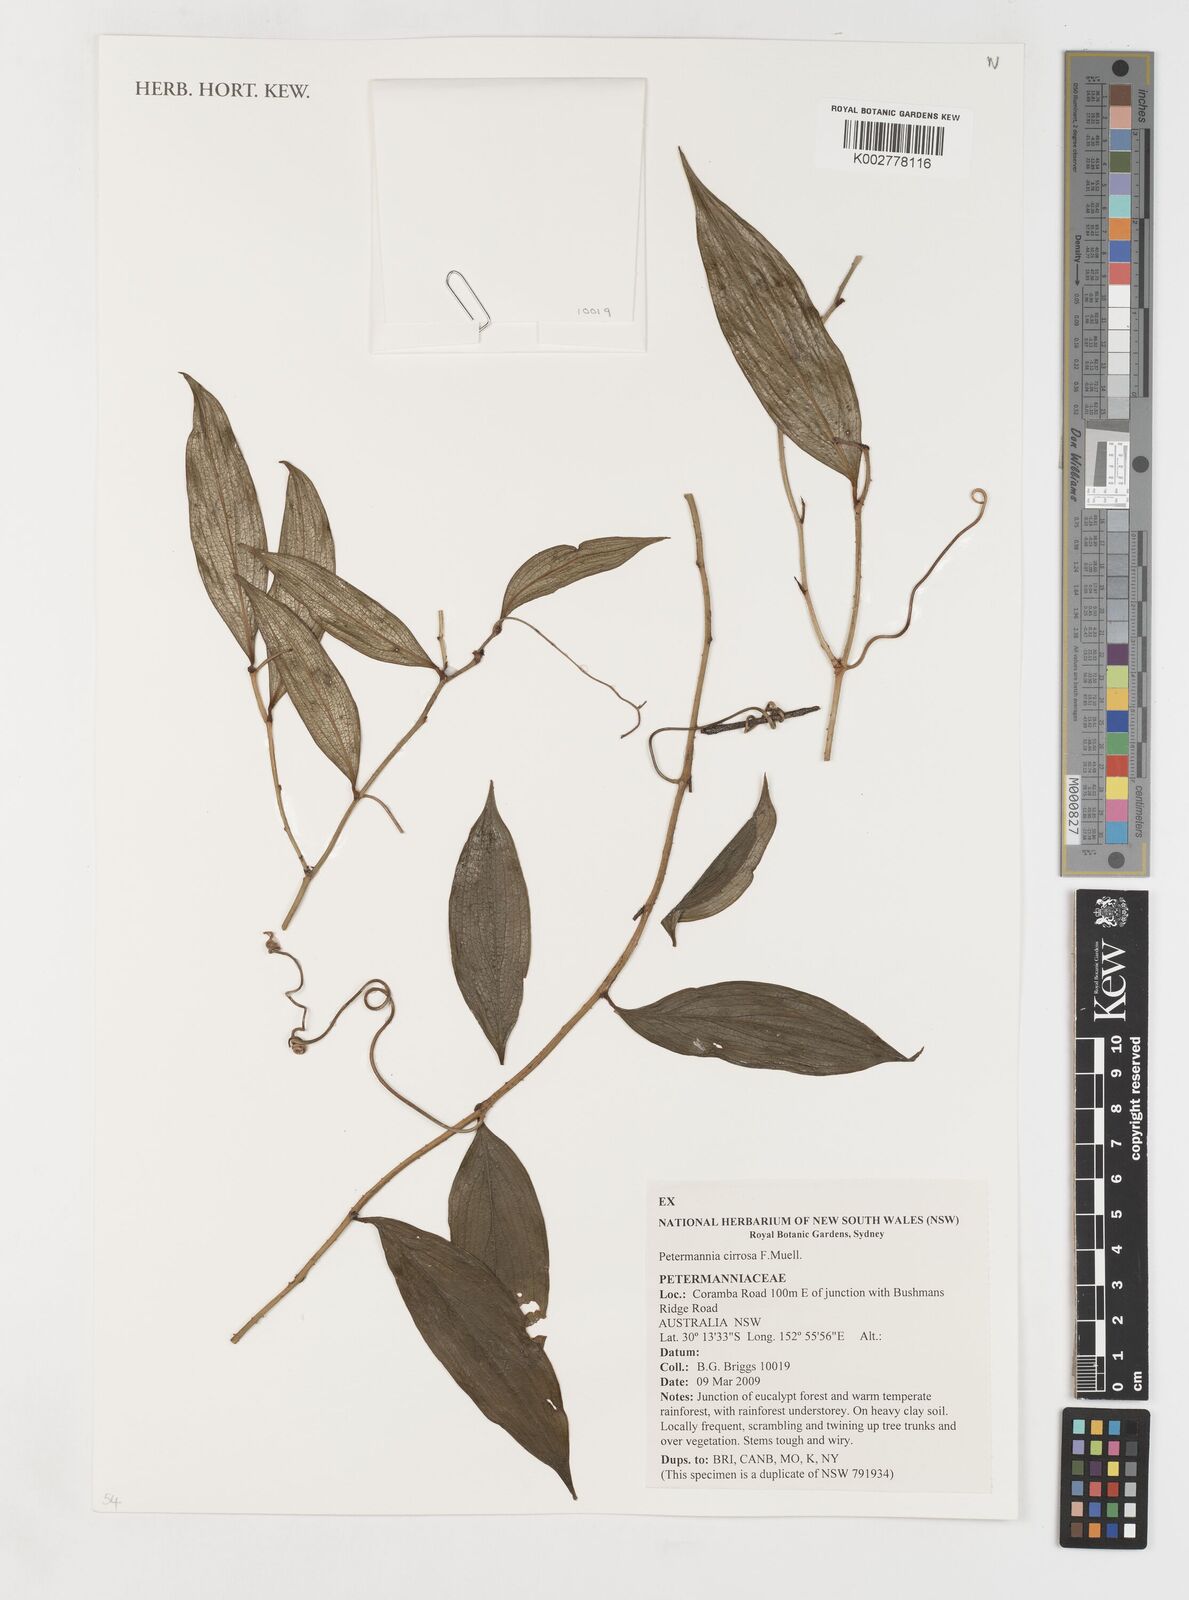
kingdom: Plantae
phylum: Tracheophyta
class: Liliopsida
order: Liliales
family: Petermanniaceae
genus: Petermannia
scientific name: Petermannia cirrosa
